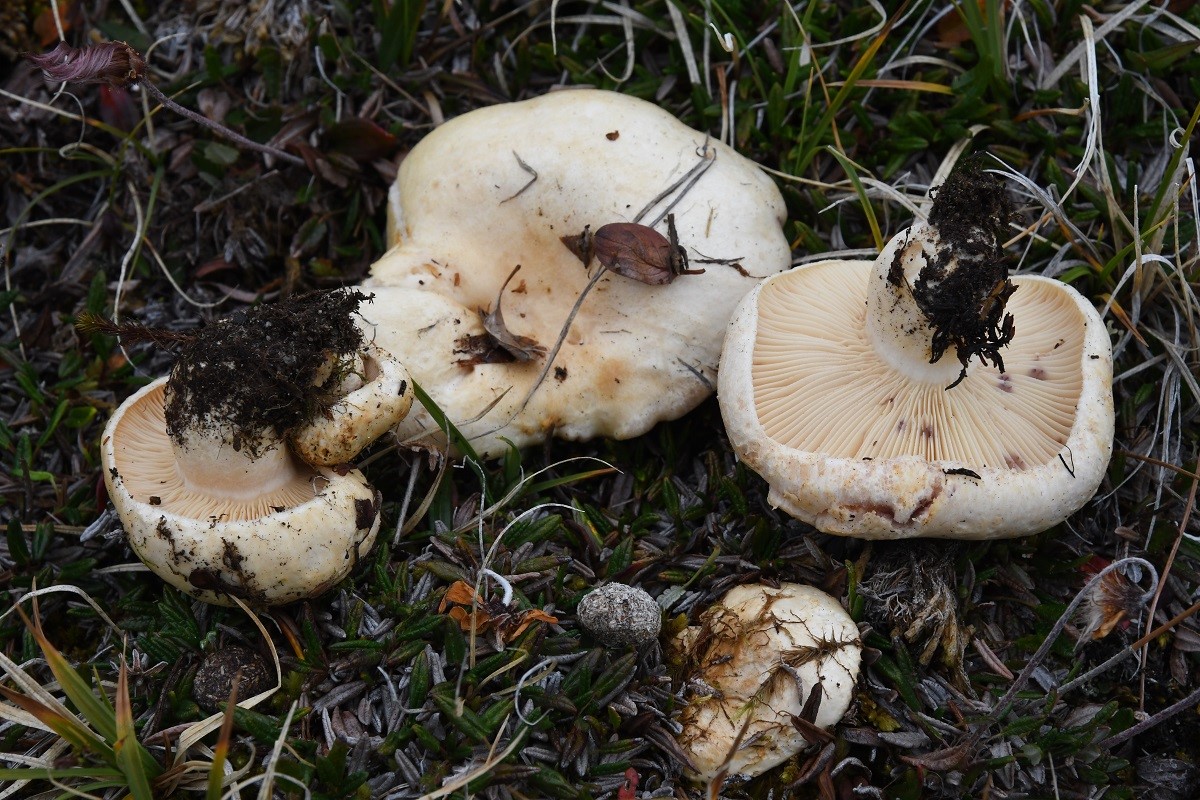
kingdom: Fungi
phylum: Basidiomycota
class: Agaricomycetes
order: Russulales
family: Russulaceae
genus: Lactarius
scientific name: Lactarius dryadophilus
